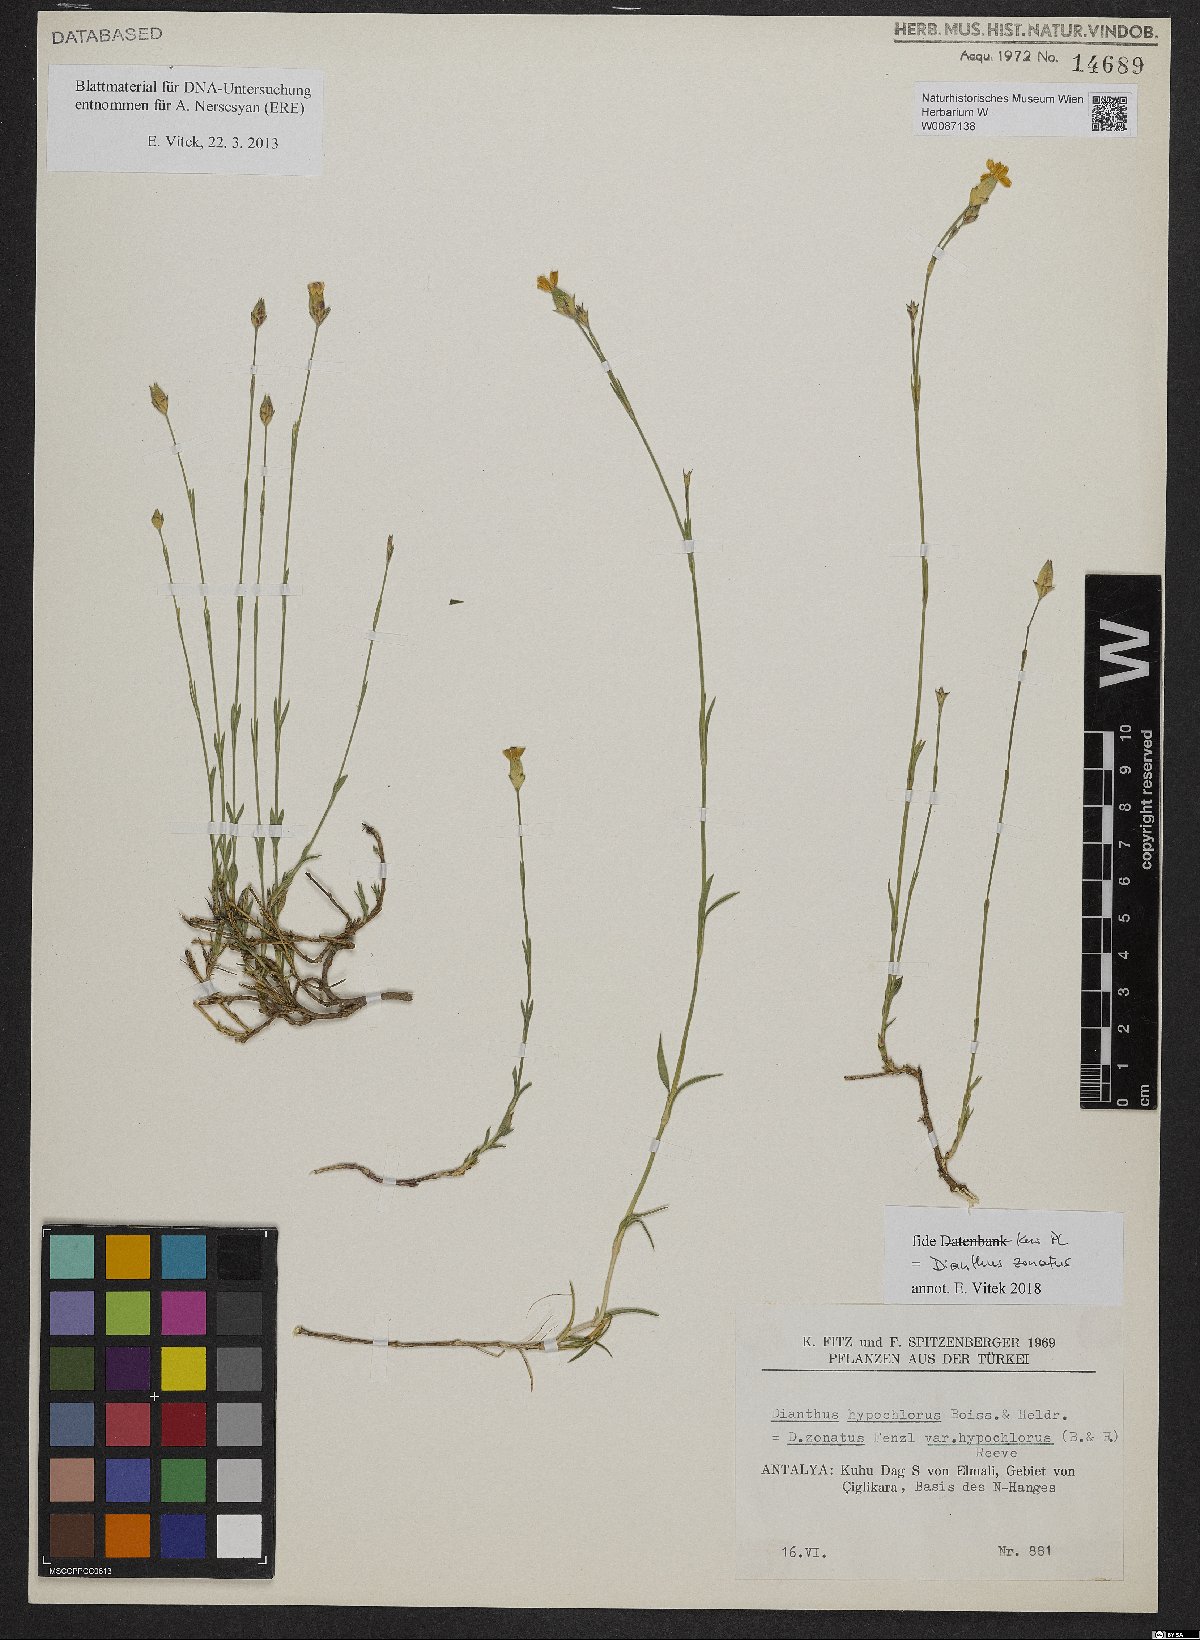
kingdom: Plantae
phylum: Tracheophyta
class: Magnoliopsida
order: Caryophyllales
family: Caryophyllaceae
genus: Dianthus
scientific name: Dianthus zonatus
